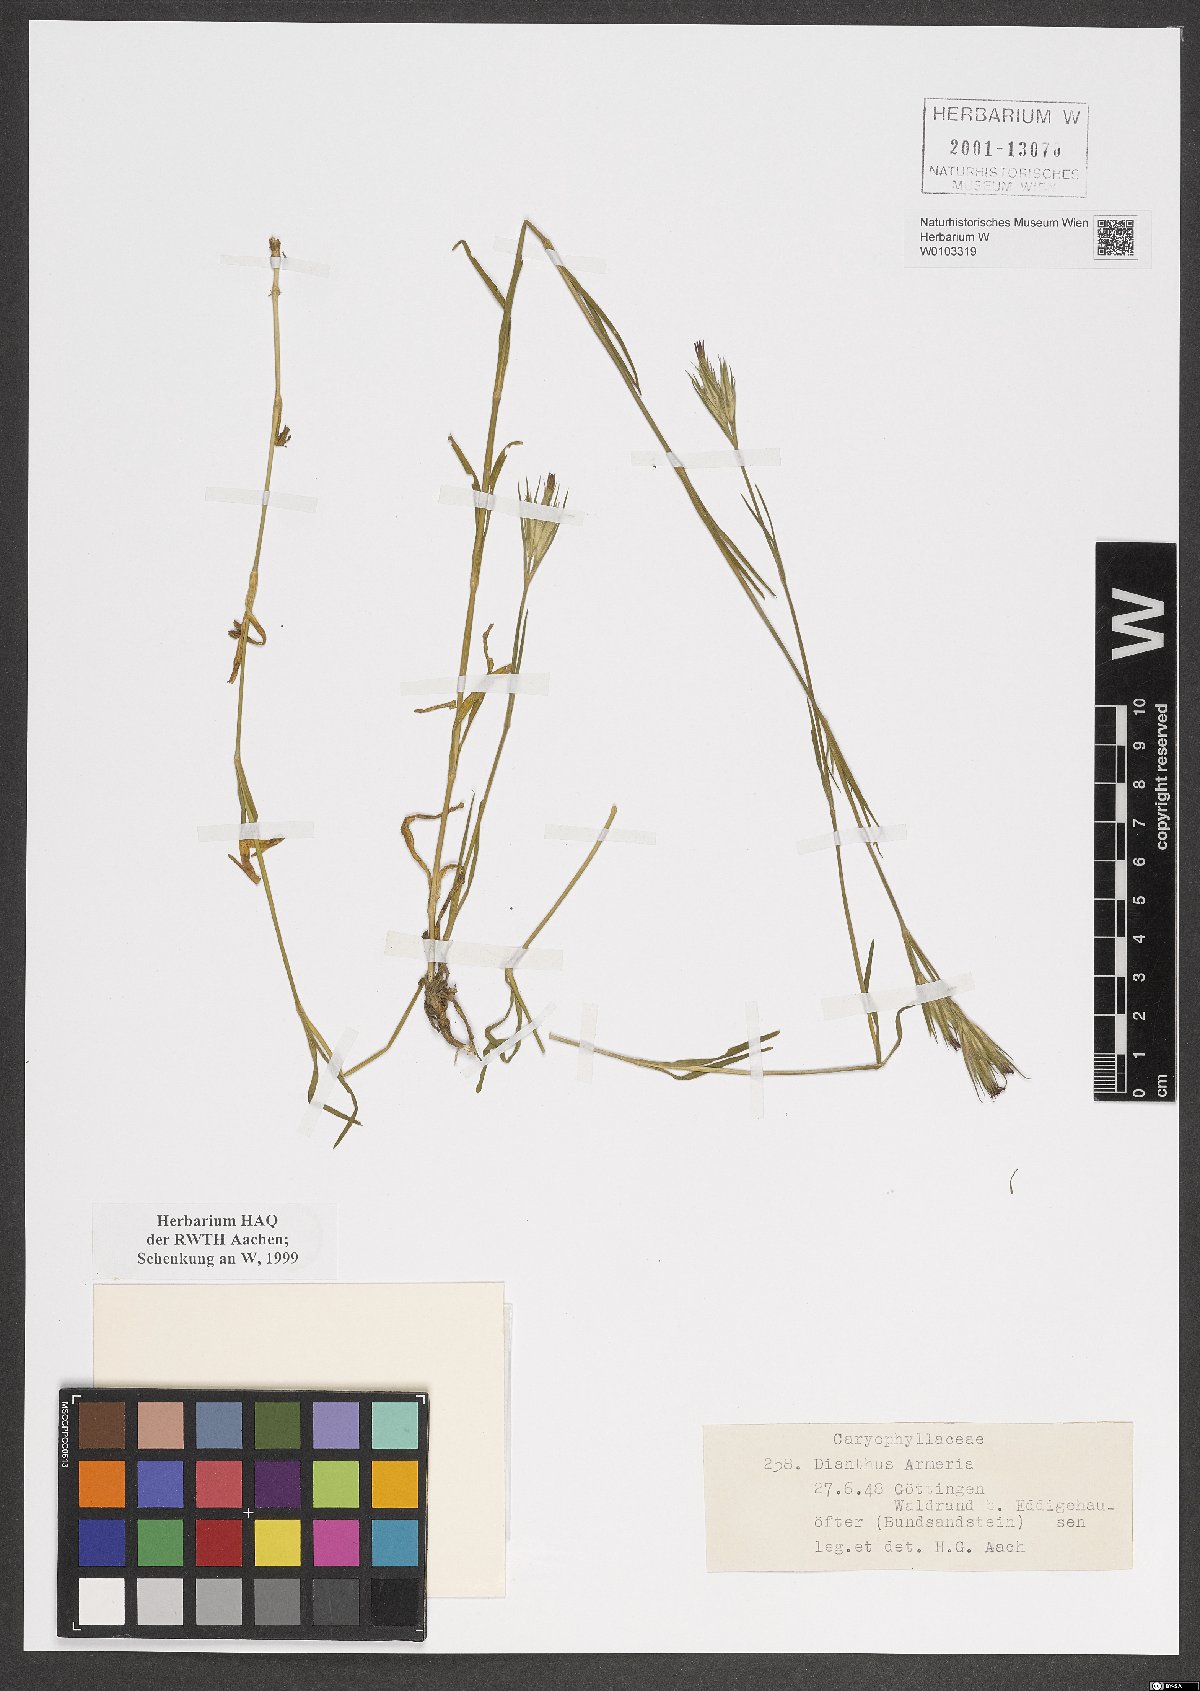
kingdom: Plantae
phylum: Tracheophyta
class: Magnoliopsida
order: Caryophyllales
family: Caryophyllaceae
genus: Dianthus
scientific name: Dianthus armeria
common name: Deptford pink
